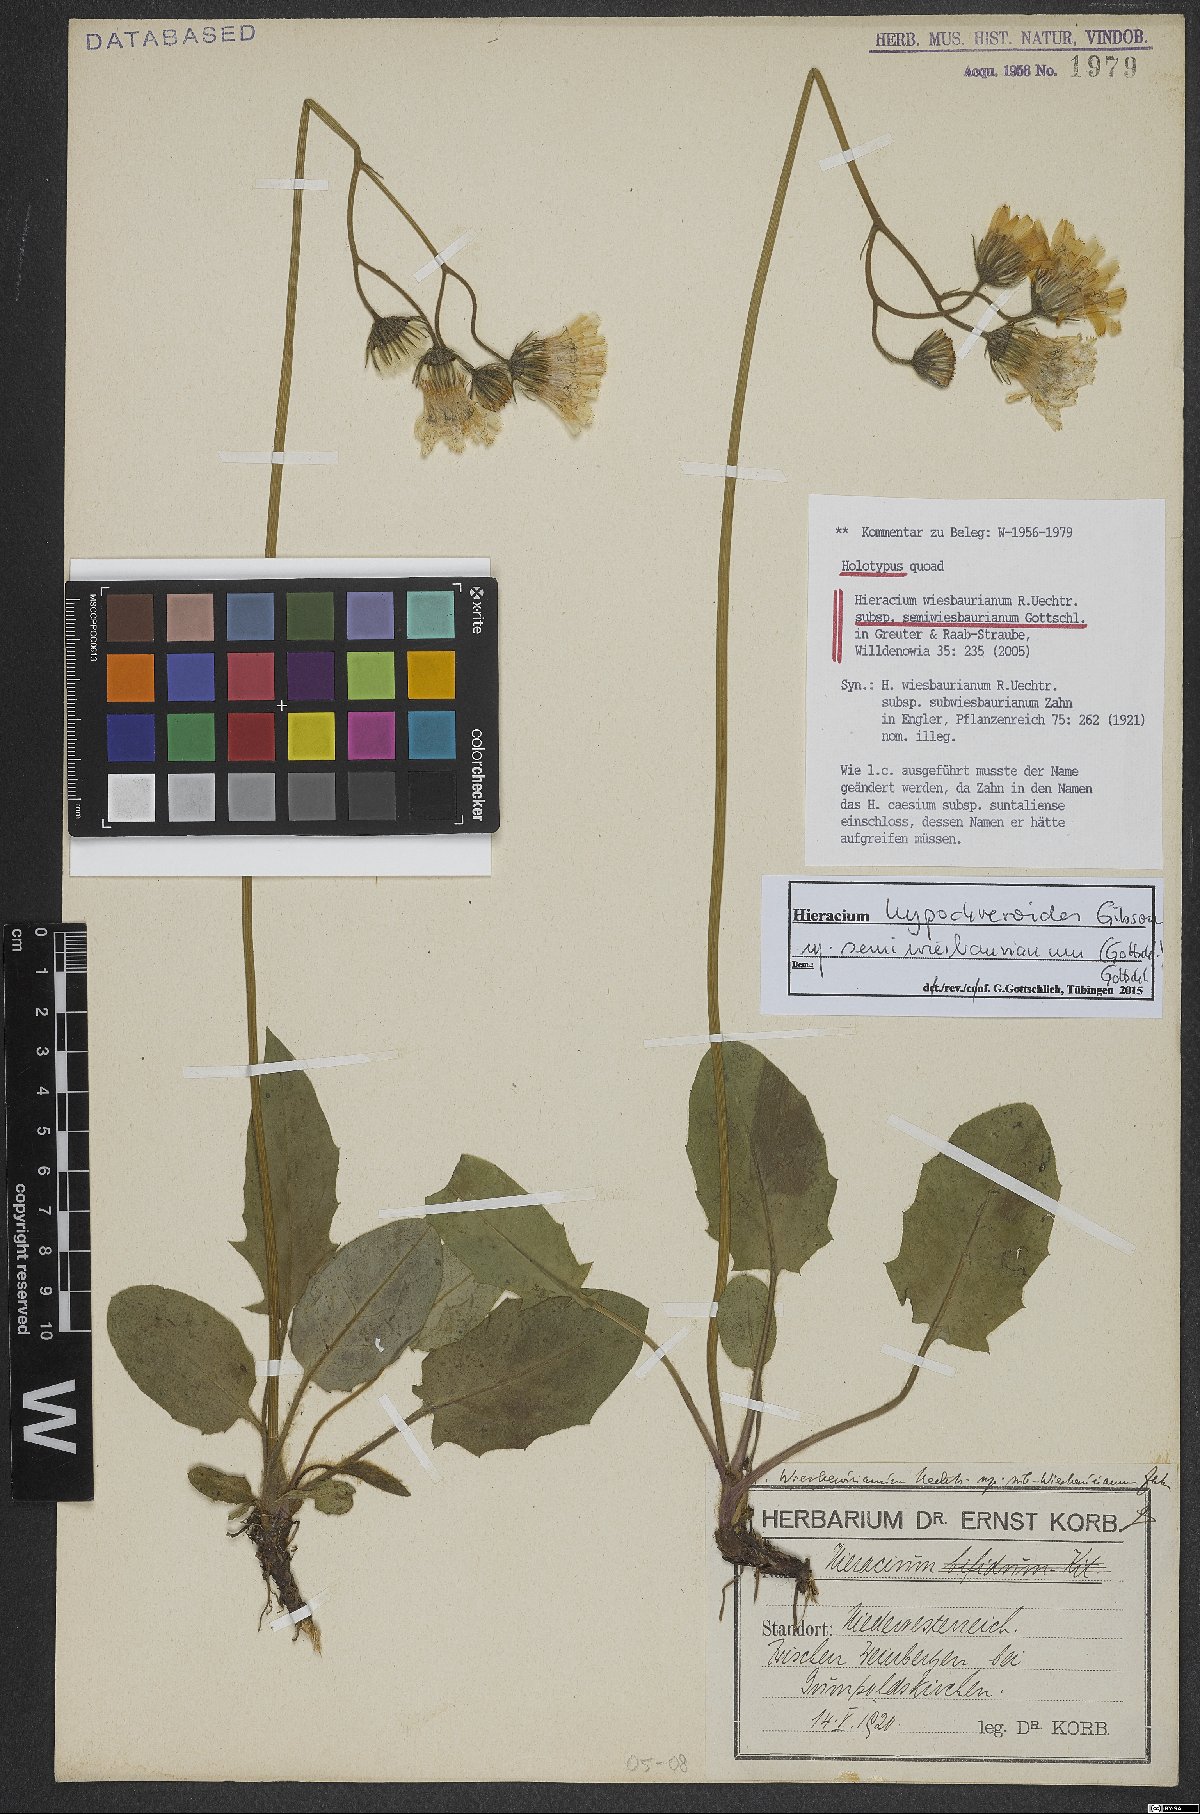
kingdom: Plantae
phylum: Tracheophyta
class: Magnoliopsida
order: Asterales
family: Asteraceae
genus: Hieracium
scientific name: Hieracium hypochoeroides
